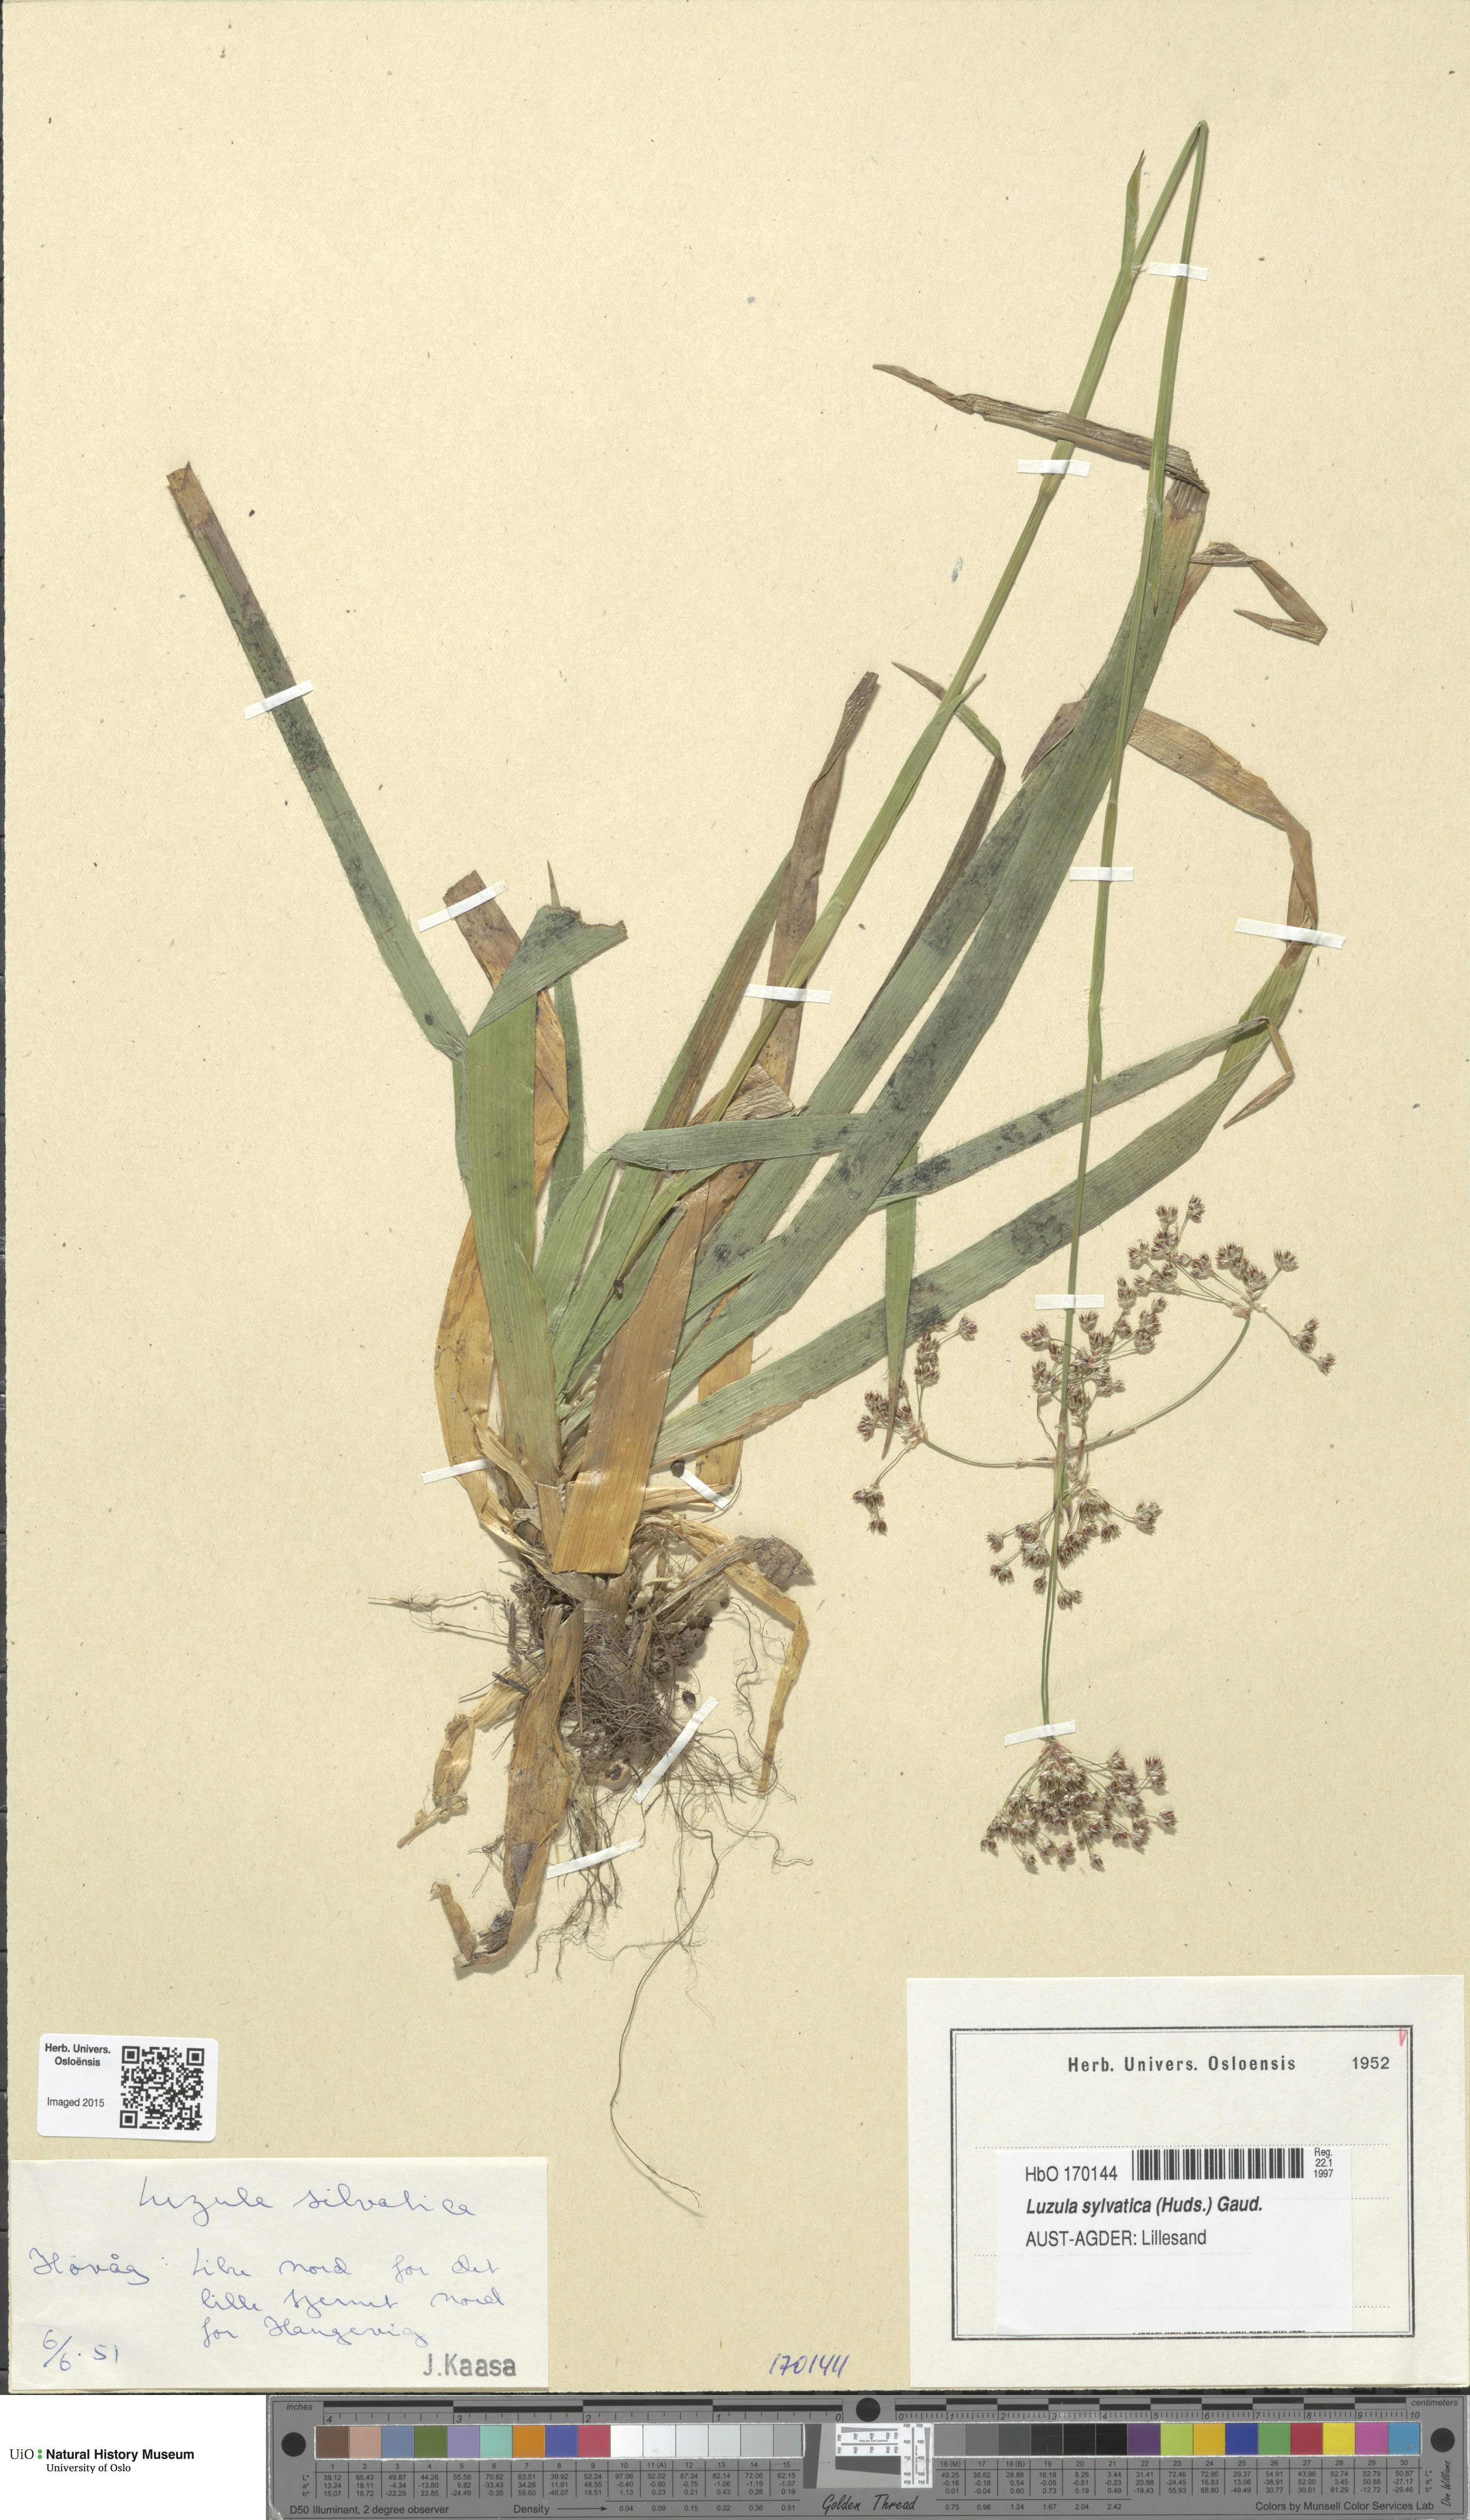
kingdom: Plantae
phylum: Tracheophyta
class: Liliopsida
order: Poales
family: Juncaceae
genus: Luzula
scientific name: Luzula sylvatica
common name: Great wood-rush
